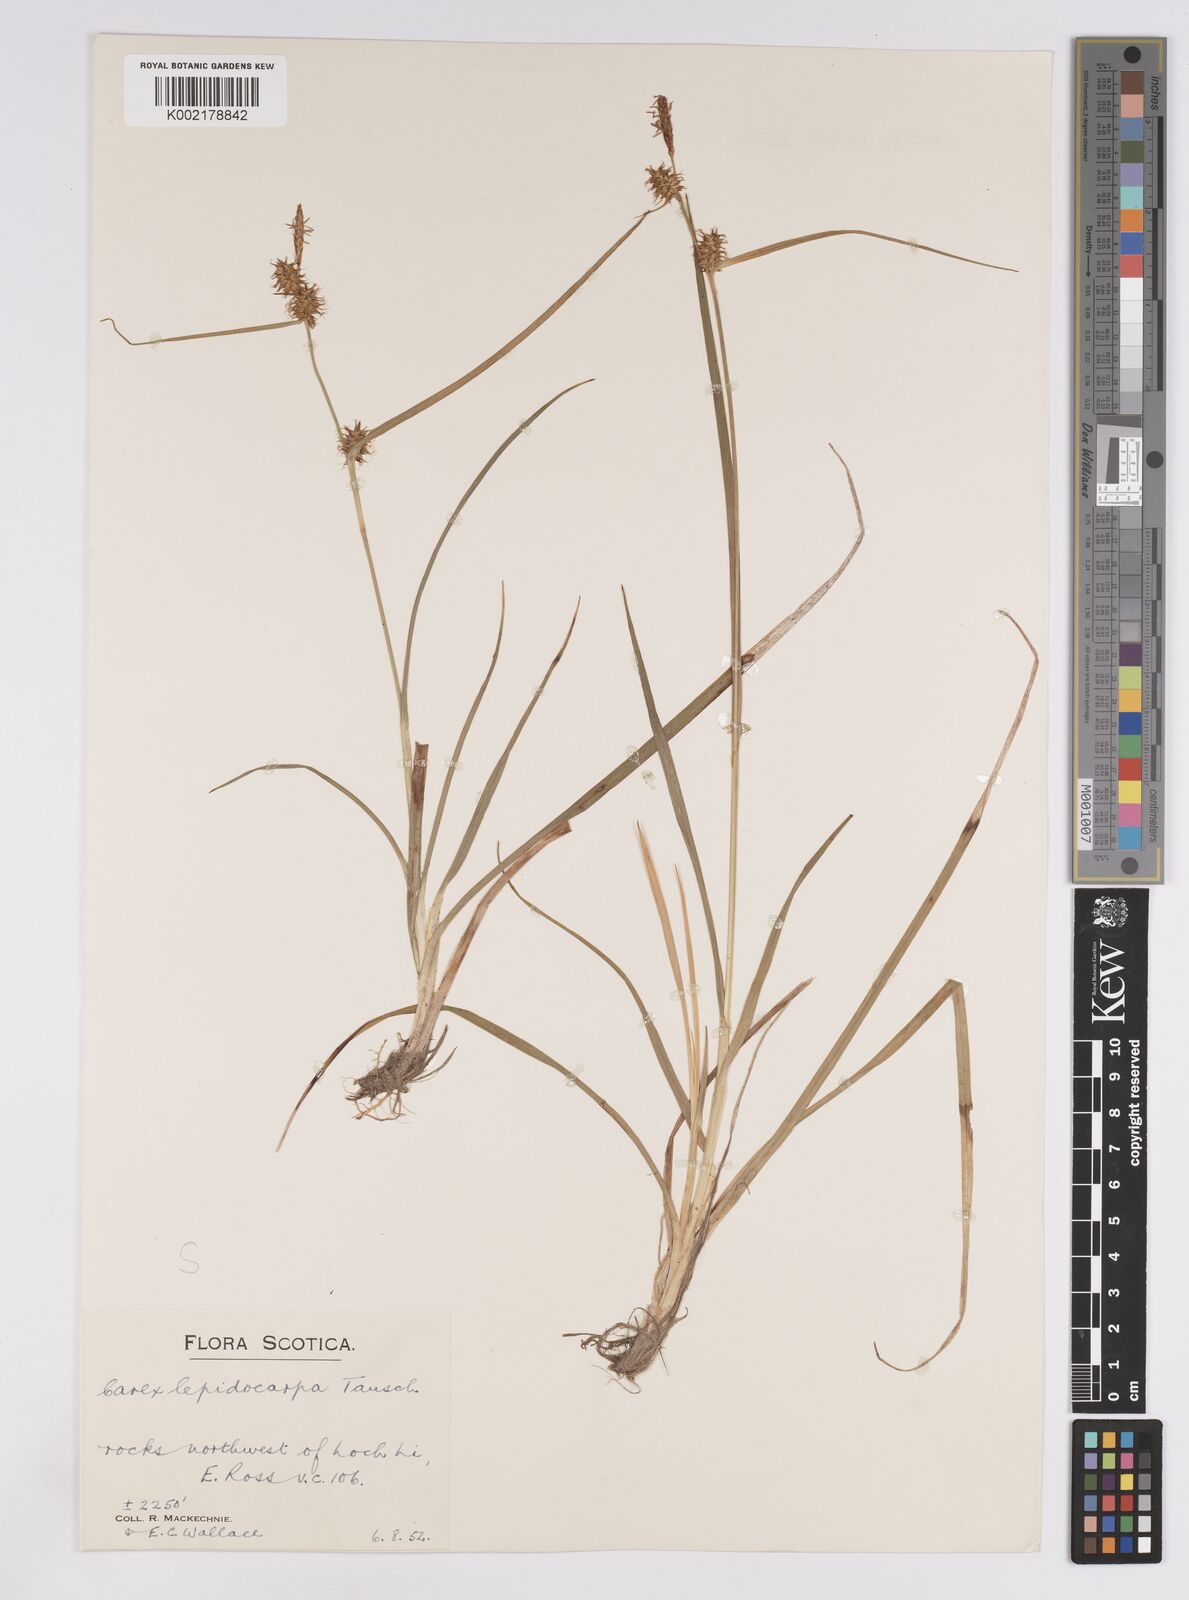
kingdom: Plantae
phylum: Tracheophyta
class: Liliopsida
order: Poales
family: Cyperaceae
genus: Carex
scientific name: Carex lepidocarpa
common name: Long-stalked yellow-sedge
